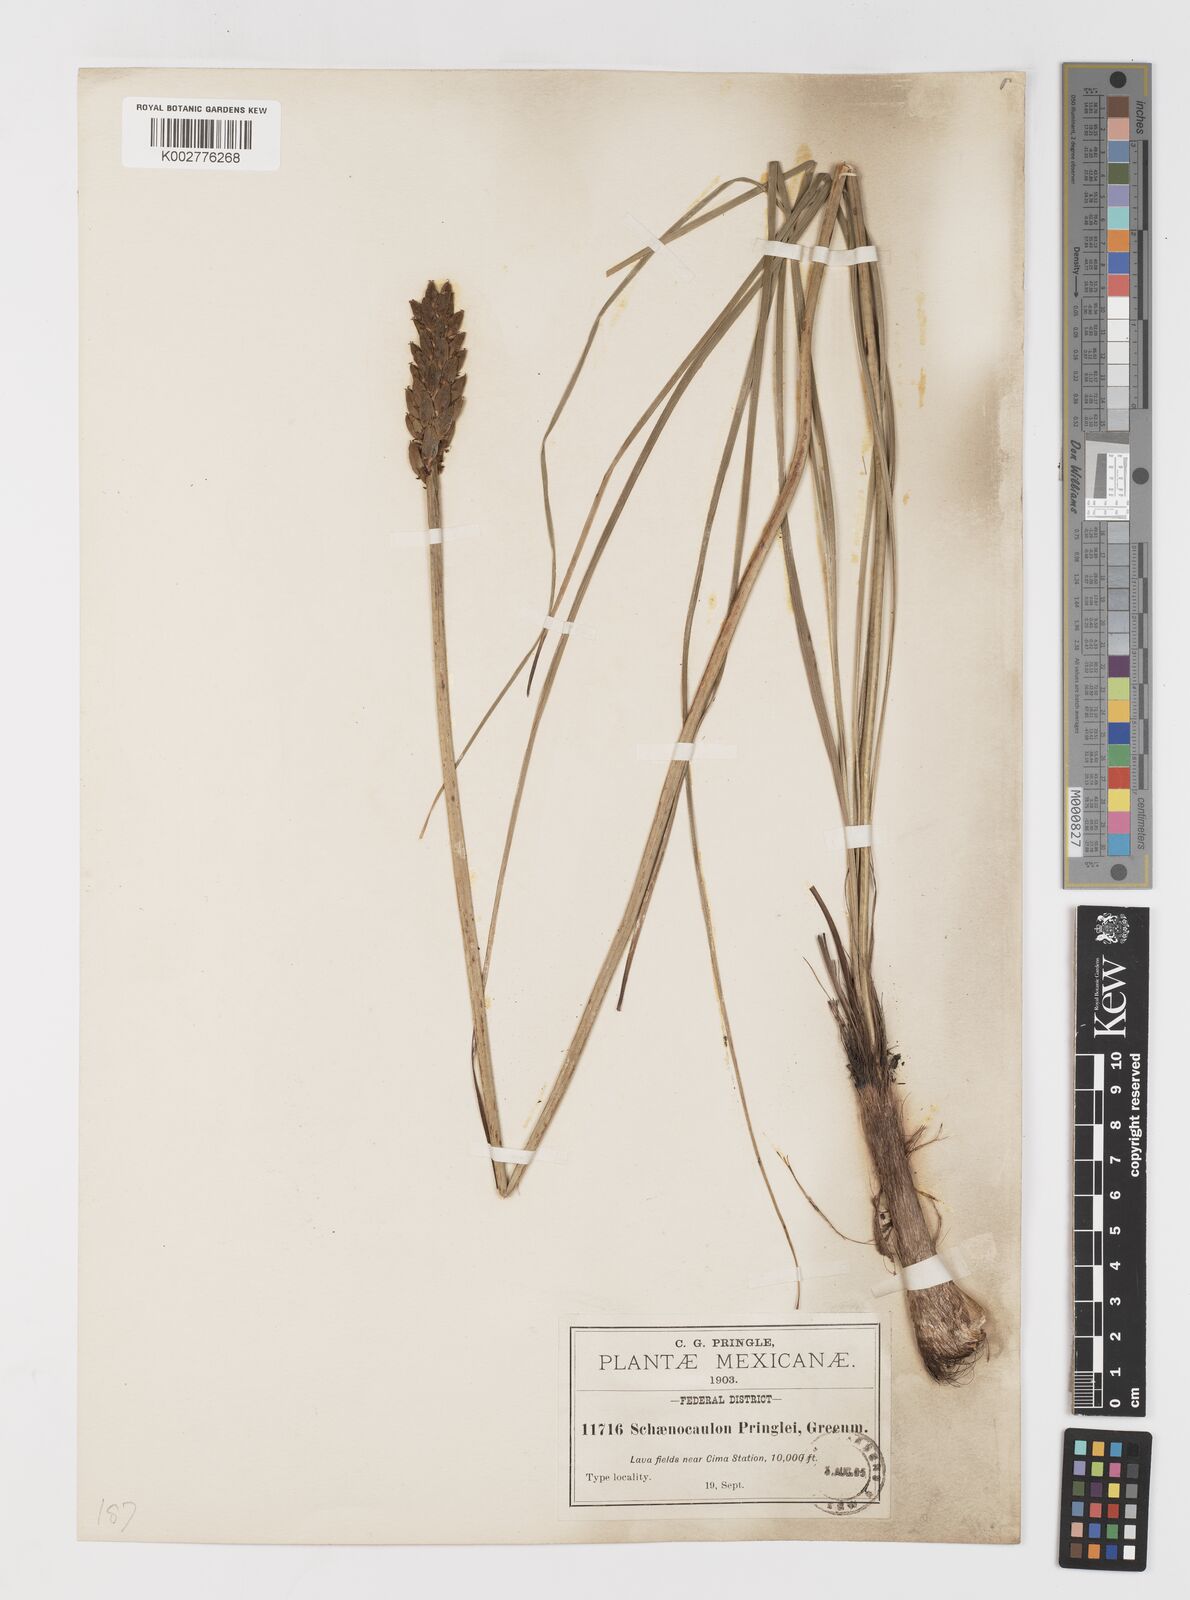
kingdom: Plantae
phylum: Tracheophyta
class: Liliopsida
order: Liliales
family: Melanthiaceae
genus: Schoenocaulon
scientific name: Schoenocaulon pringlei
